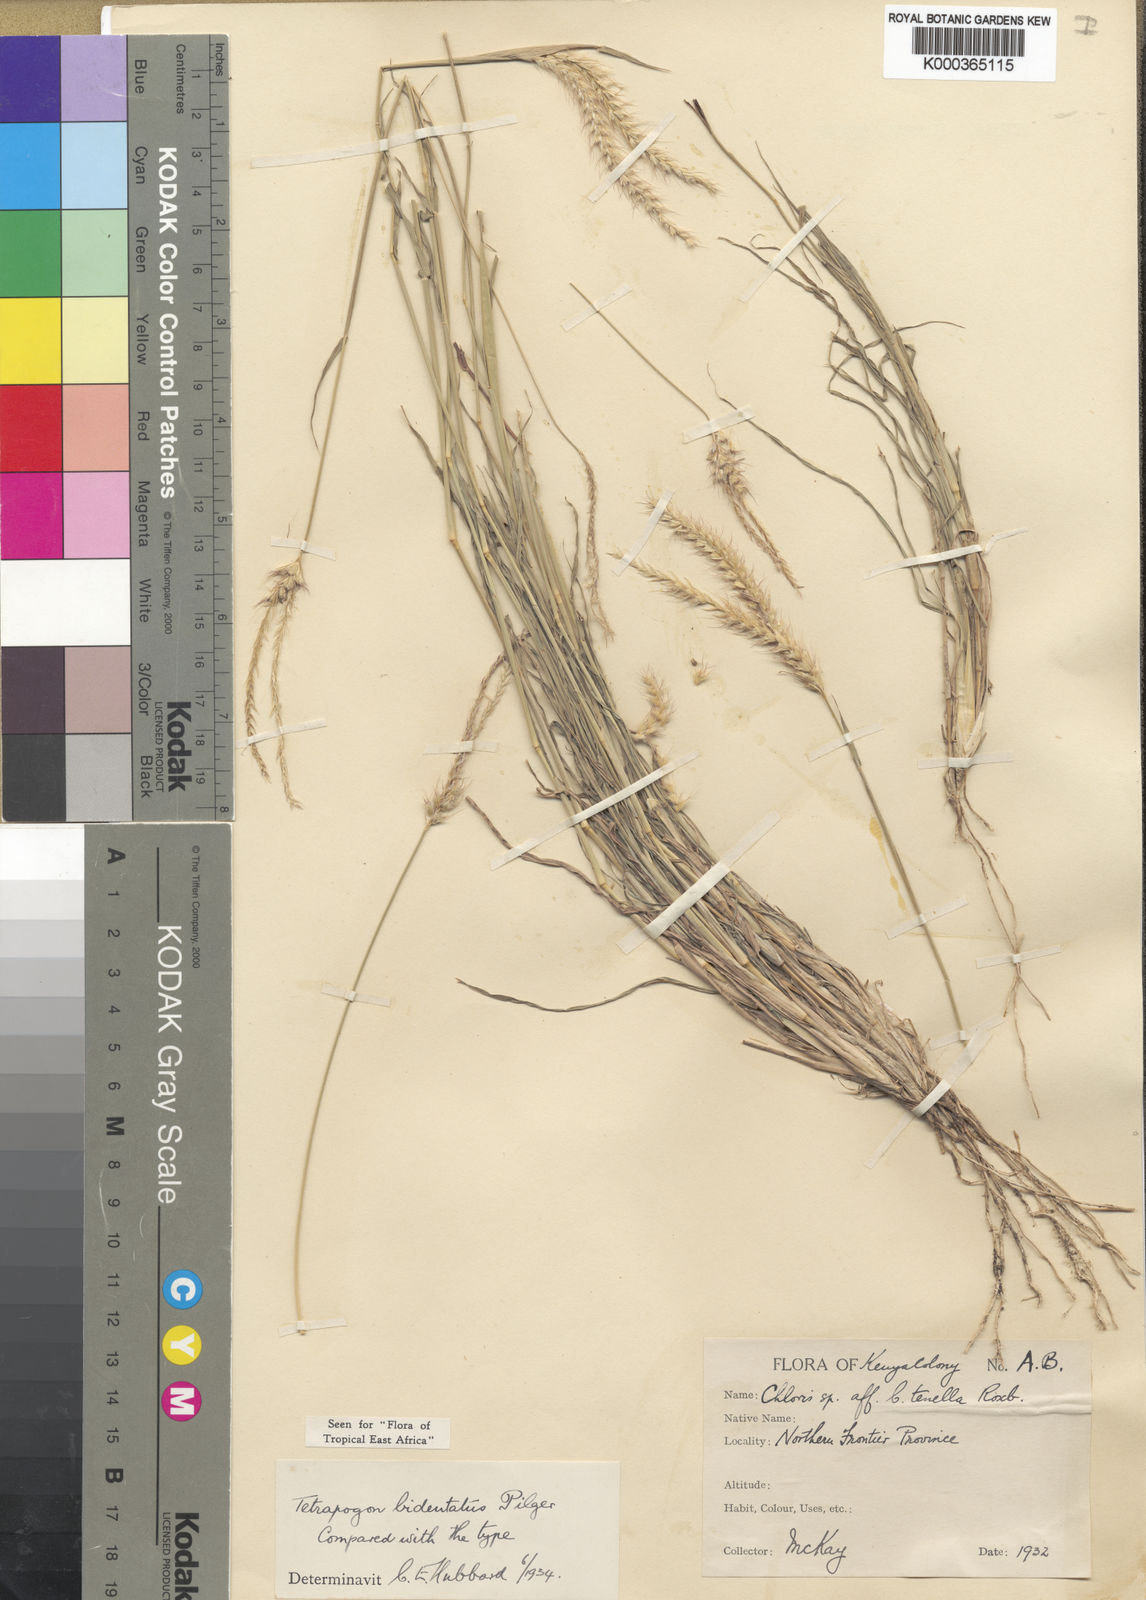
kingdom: Plantae
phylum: Tracheophyta
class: Liliopsida
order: Poales
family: Poaceae
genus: Tetrapogon
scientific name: Tetrapogon bidentatus
